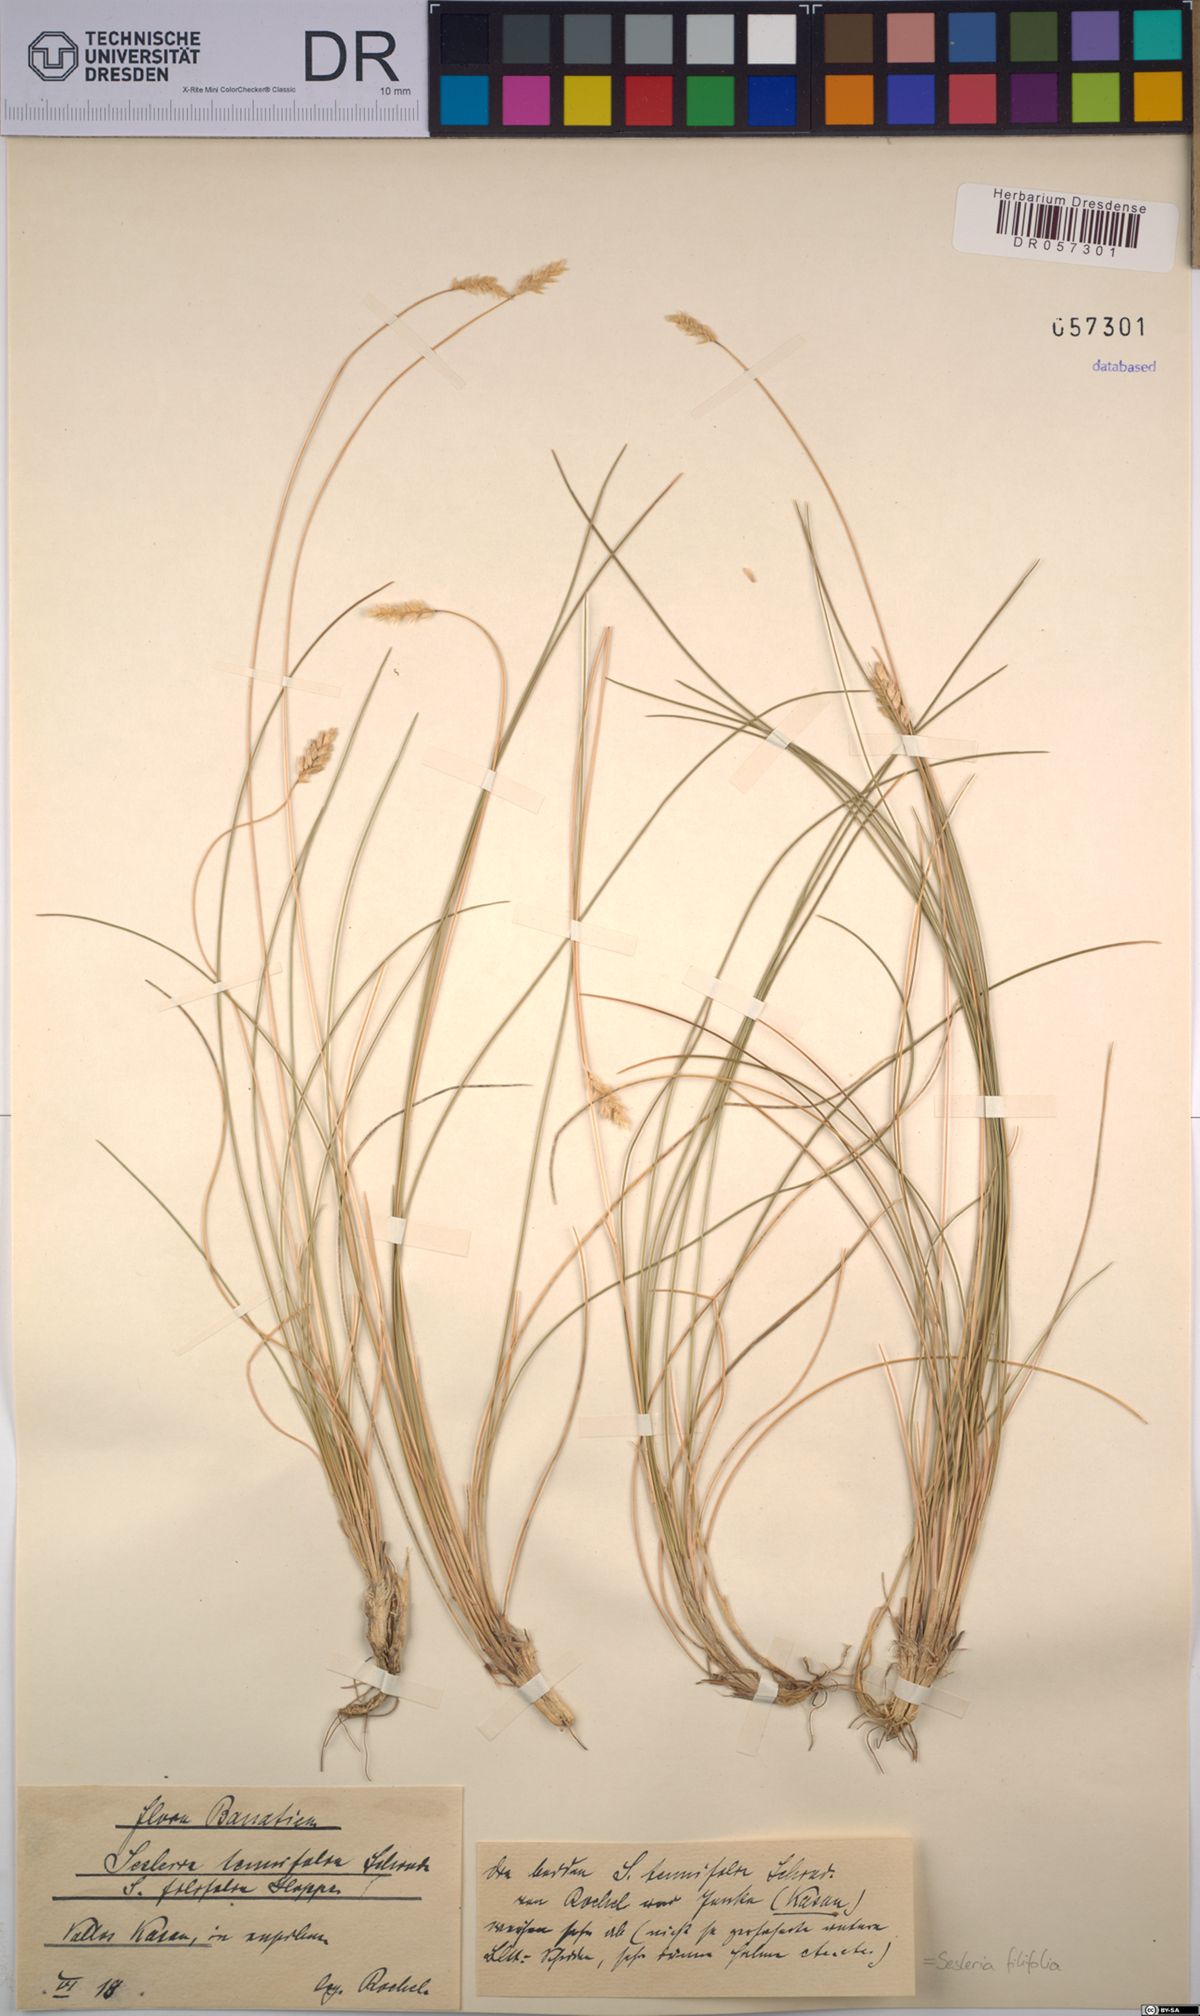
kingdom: Plantae
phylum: Tracheophyta
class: Liliopsida
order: Poales
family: Poaceae
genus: Sesleria
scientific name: Sesleria filifolia
